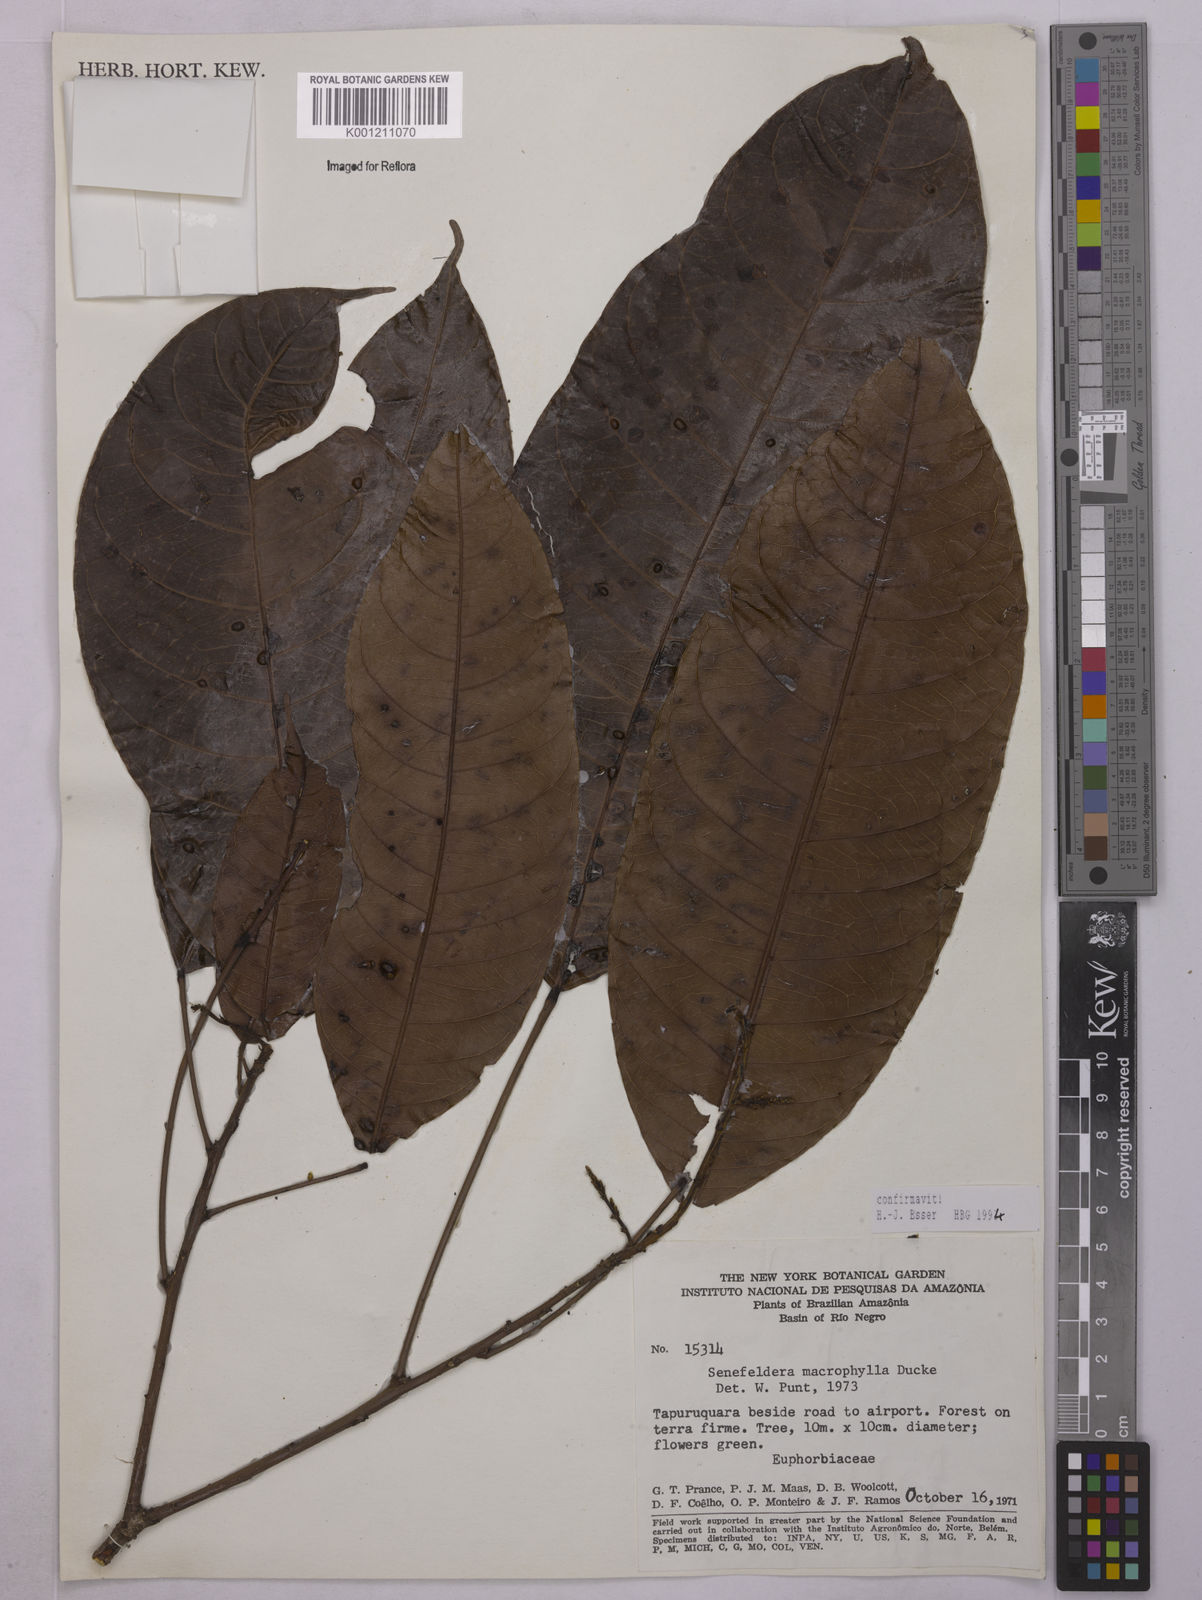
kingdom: Plantae
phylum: Tracheophyta
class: Magnoliopsida
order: Malpighiales
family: Euphorbiaceae
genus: Rhodothyrsus
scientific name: Rhodothyrsus macrophyllus
